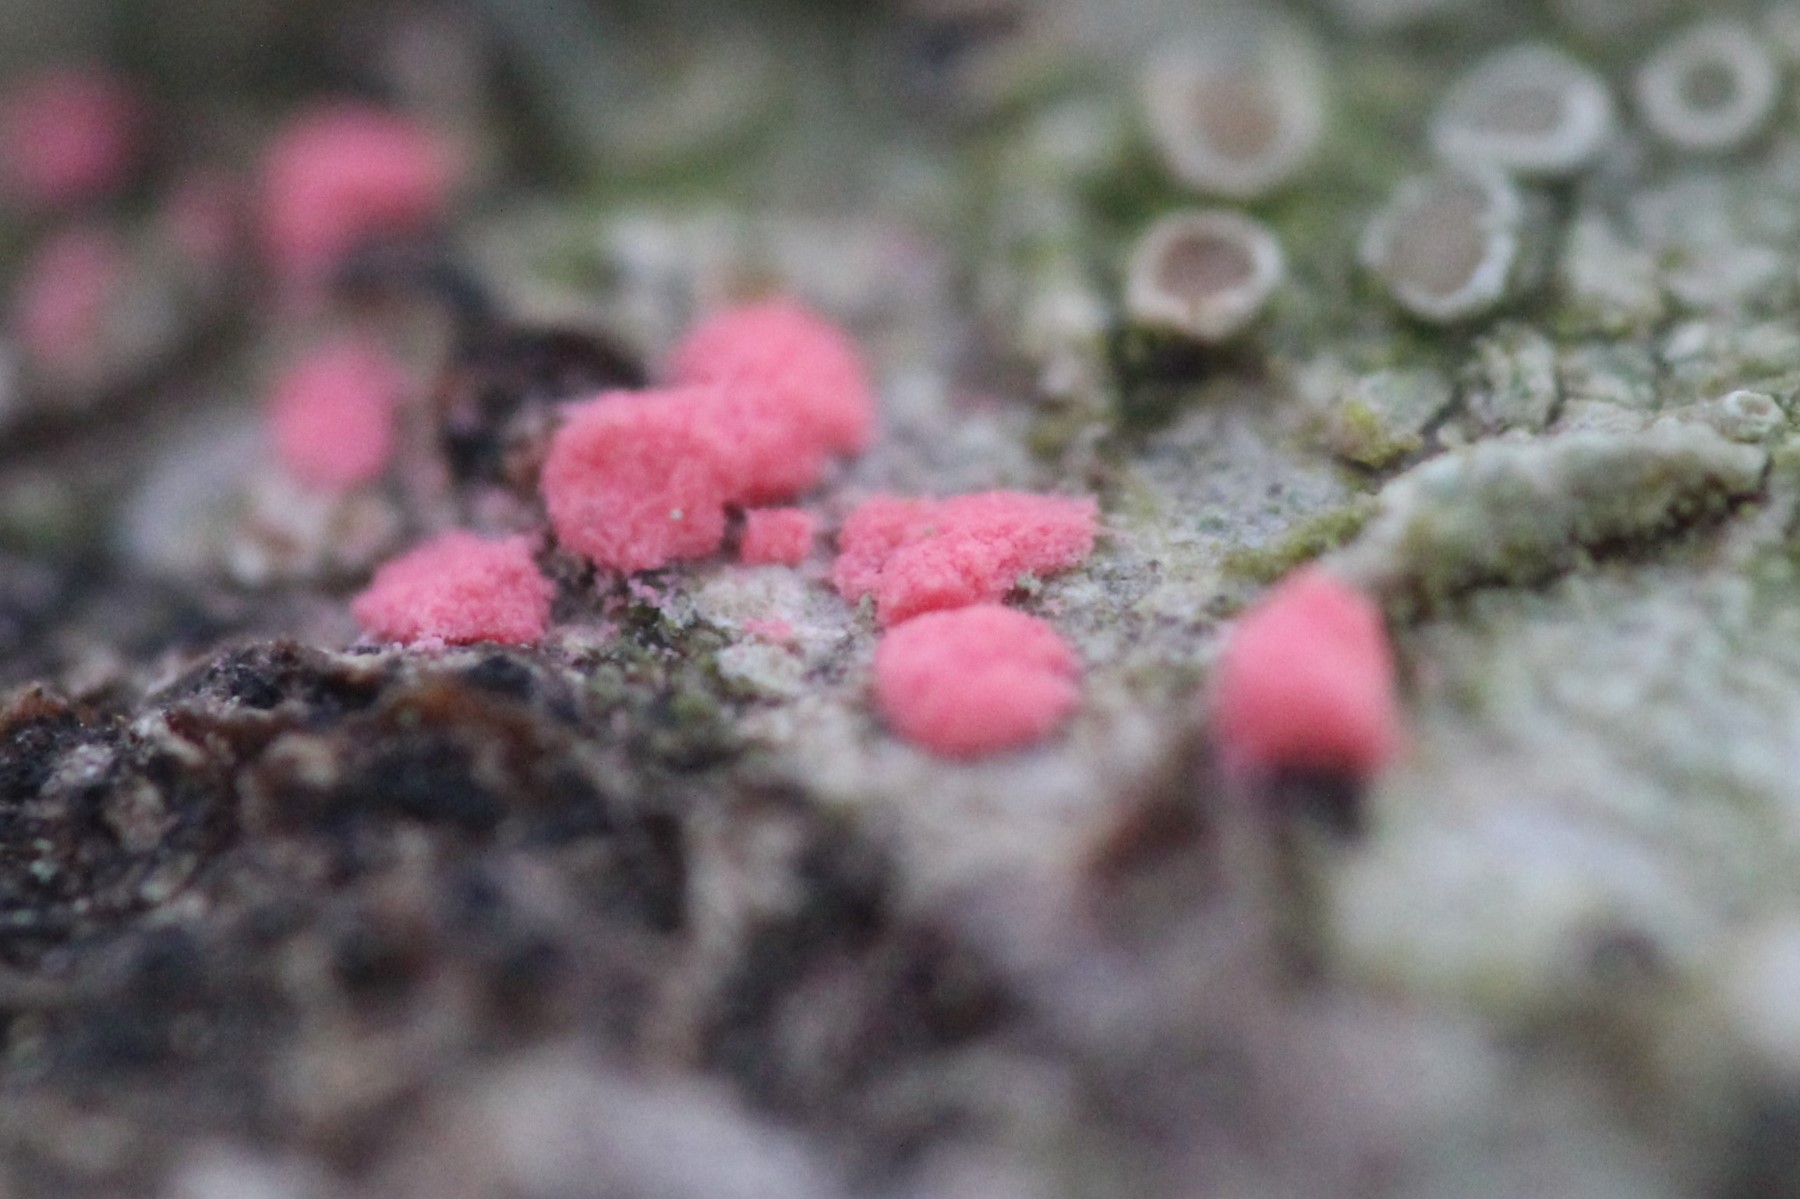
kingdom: Fungi
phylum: Ascomycota
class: Sordariomycetes
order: Hypocreales
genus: Illosporiopsis
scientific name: Illosporiopsis christiansenii
